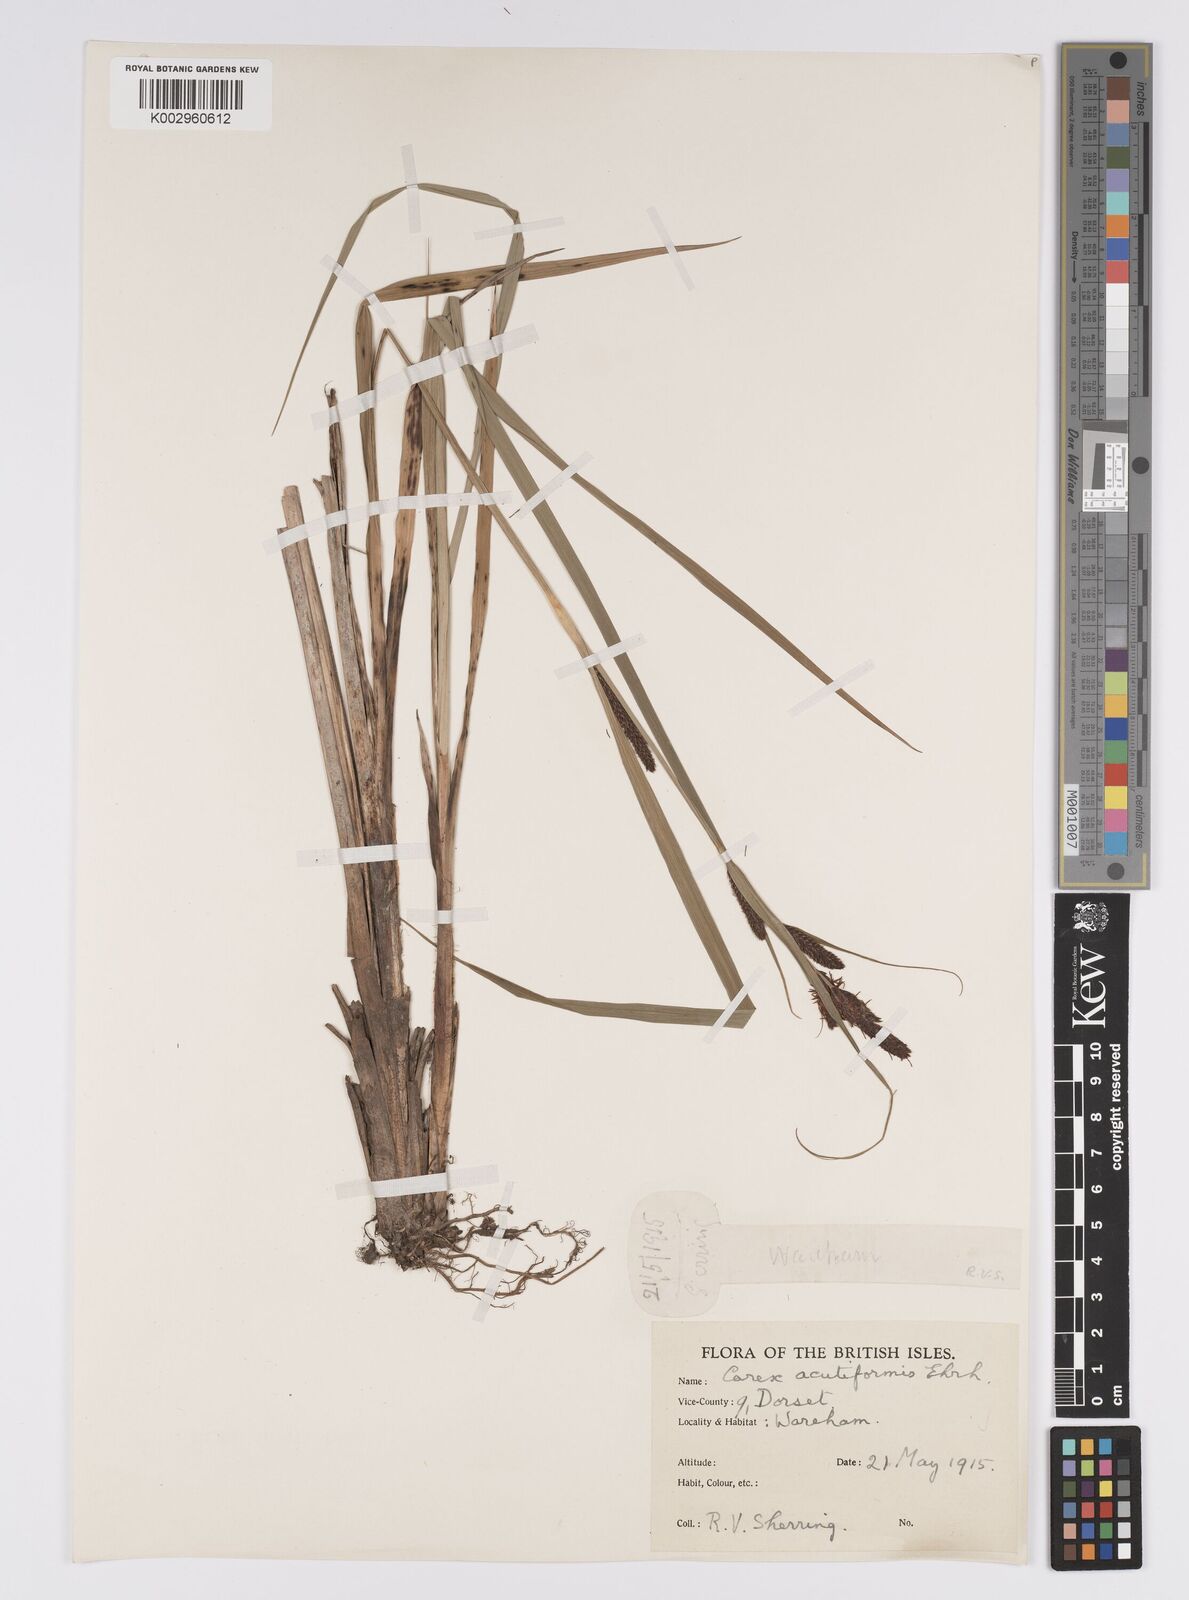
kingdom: Plantae
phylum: Tracheophyta
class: Liliopsida
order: Poales
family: Cyperaceae
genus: Carex
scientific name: Carex acutiformis
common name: Lesser pond-sedge
